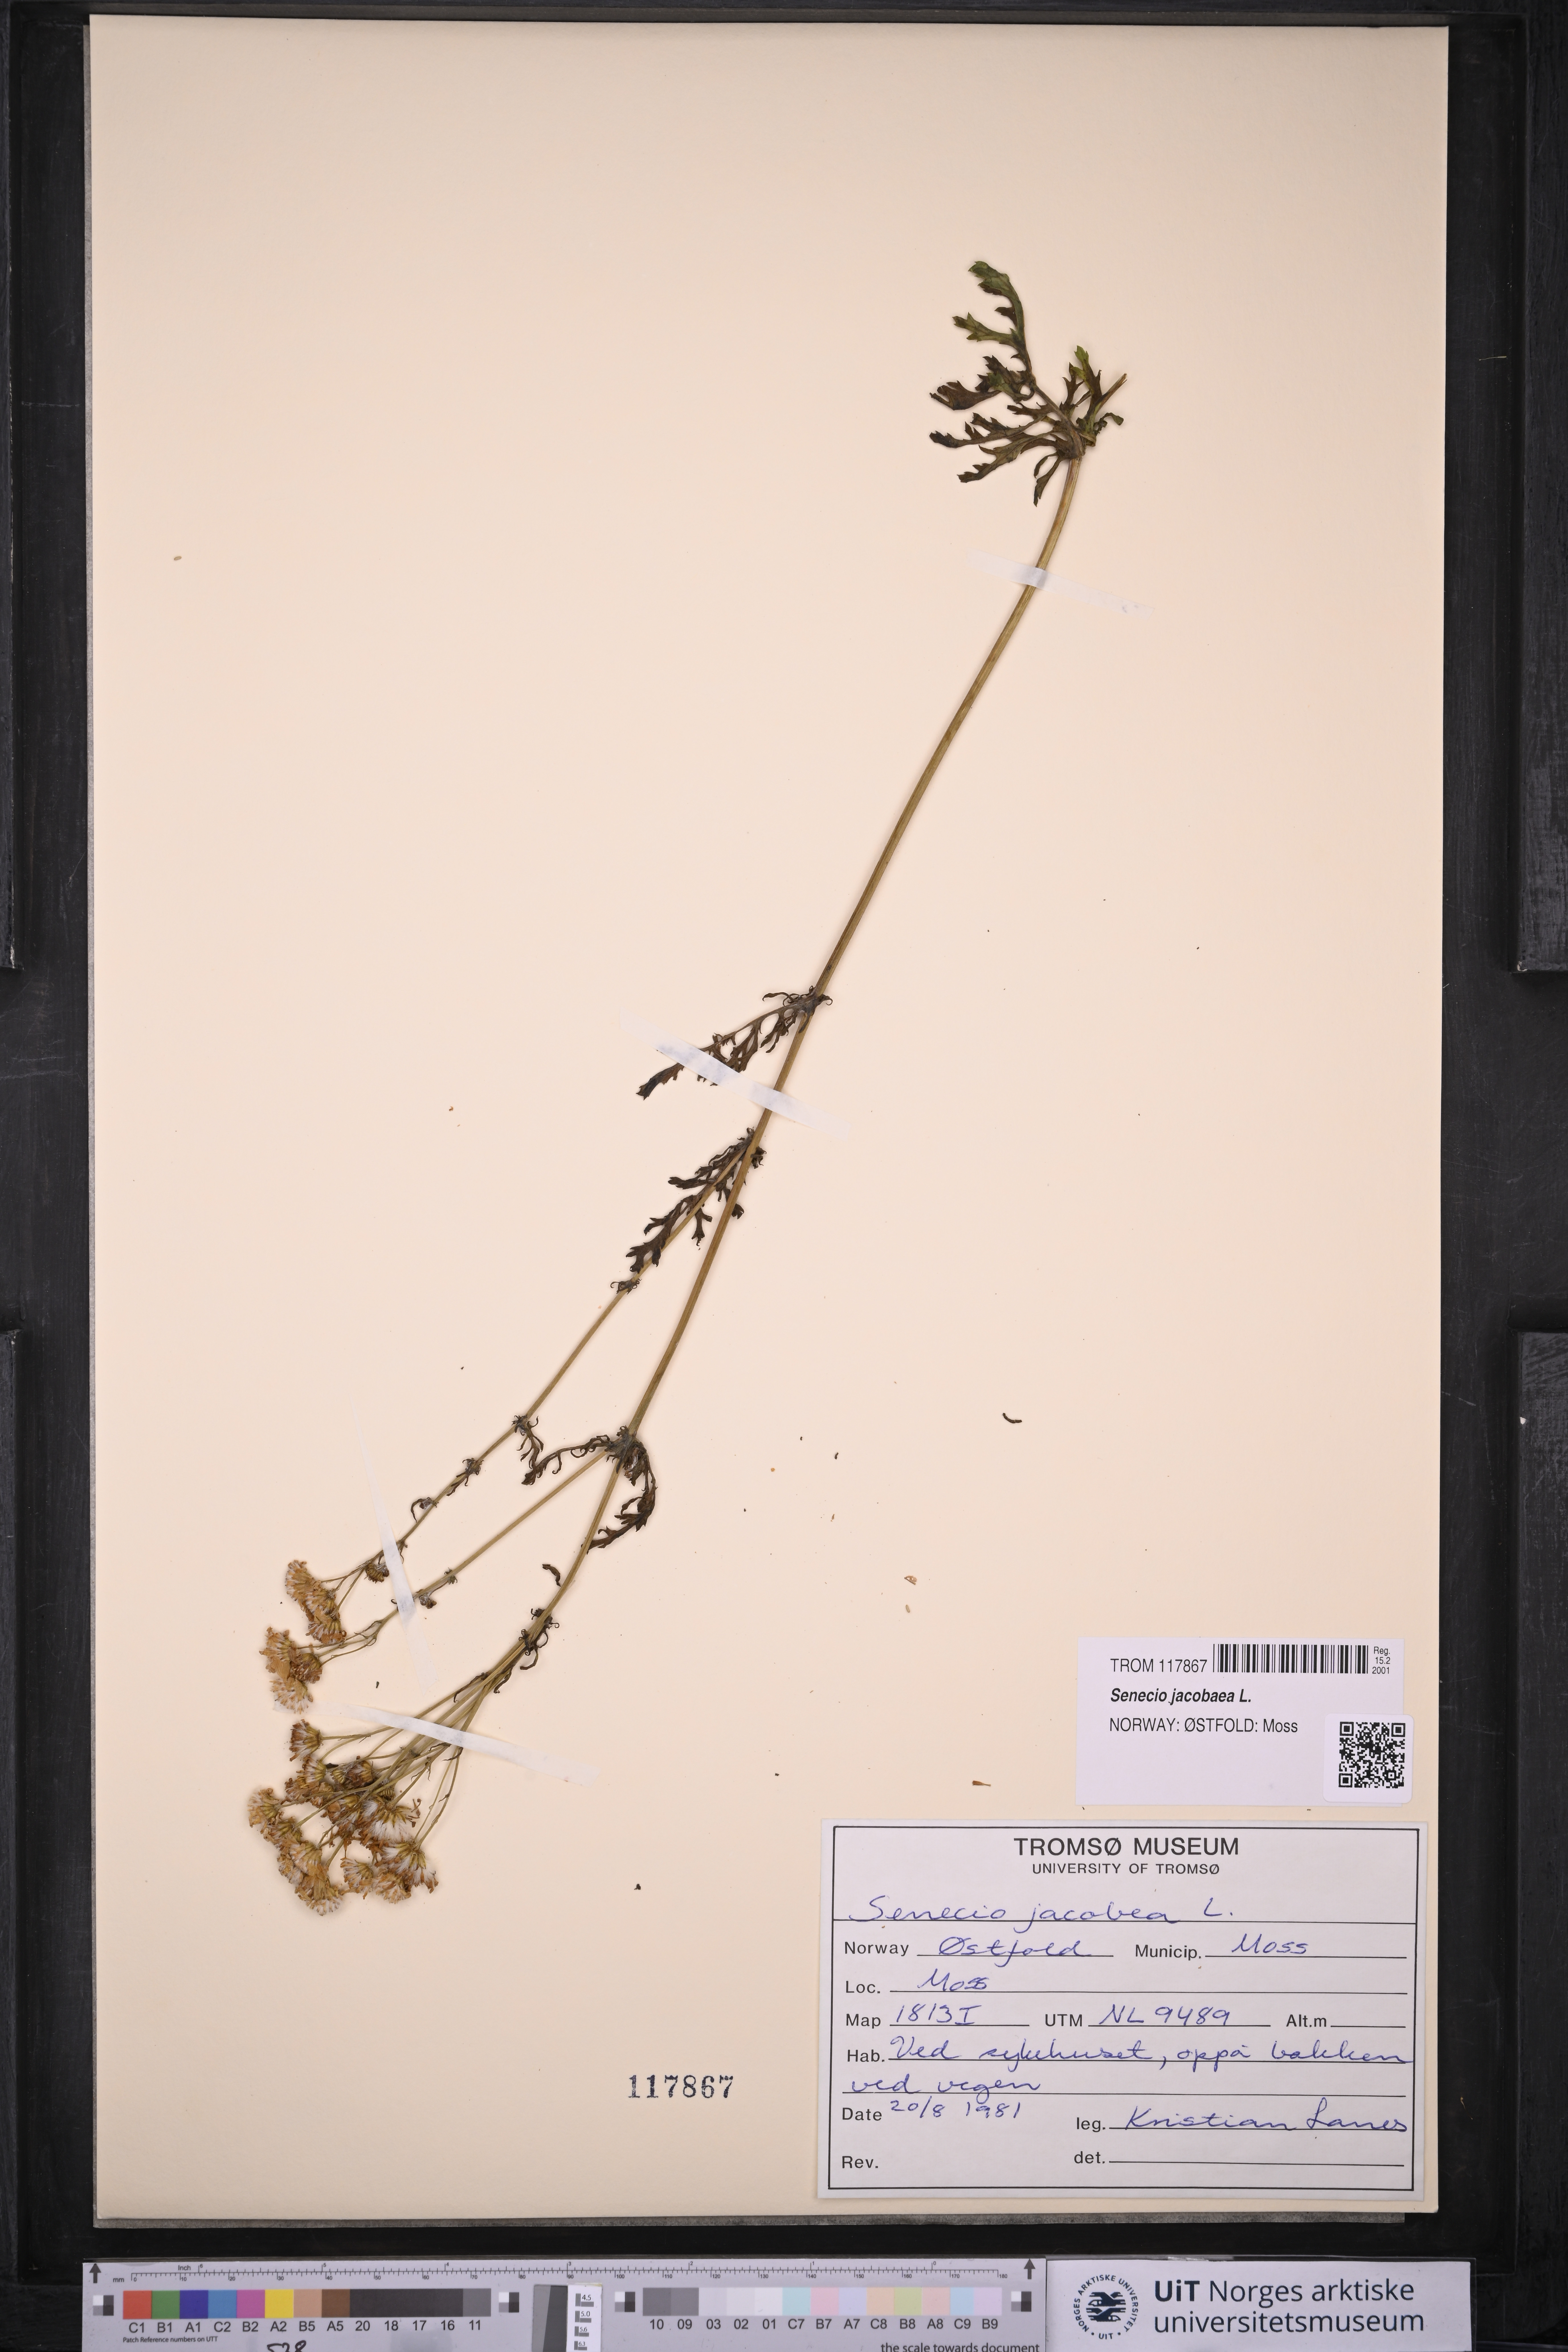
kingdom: Plantae
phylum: Tracheophyta
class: Magnoliopsida
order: Asterales
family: Asteraceae
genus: Jacobaea
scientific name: Jacobaea vulgaris
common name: Stinking willie
